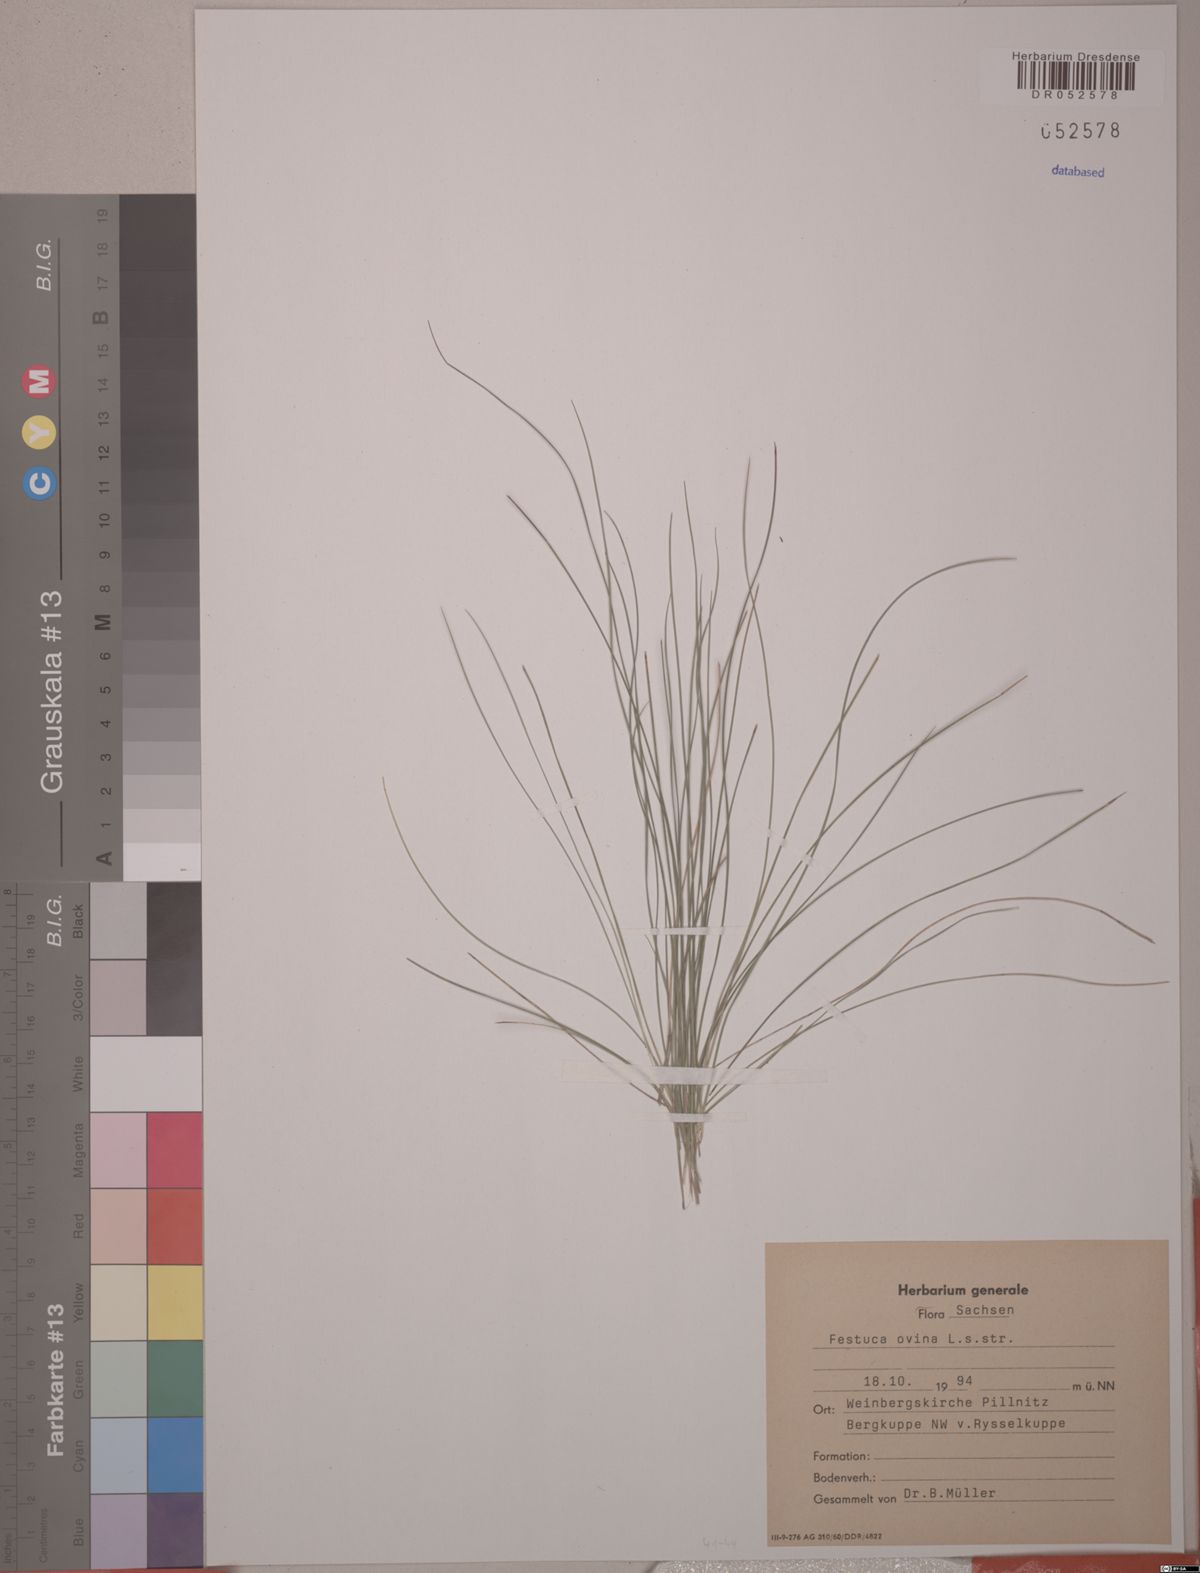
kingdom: Plantae
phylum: Tracheophyta
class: Liliopsida
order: Poales
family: Poaceae
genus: Festuca
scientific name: Festuca ovina
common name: Sheep fescue
